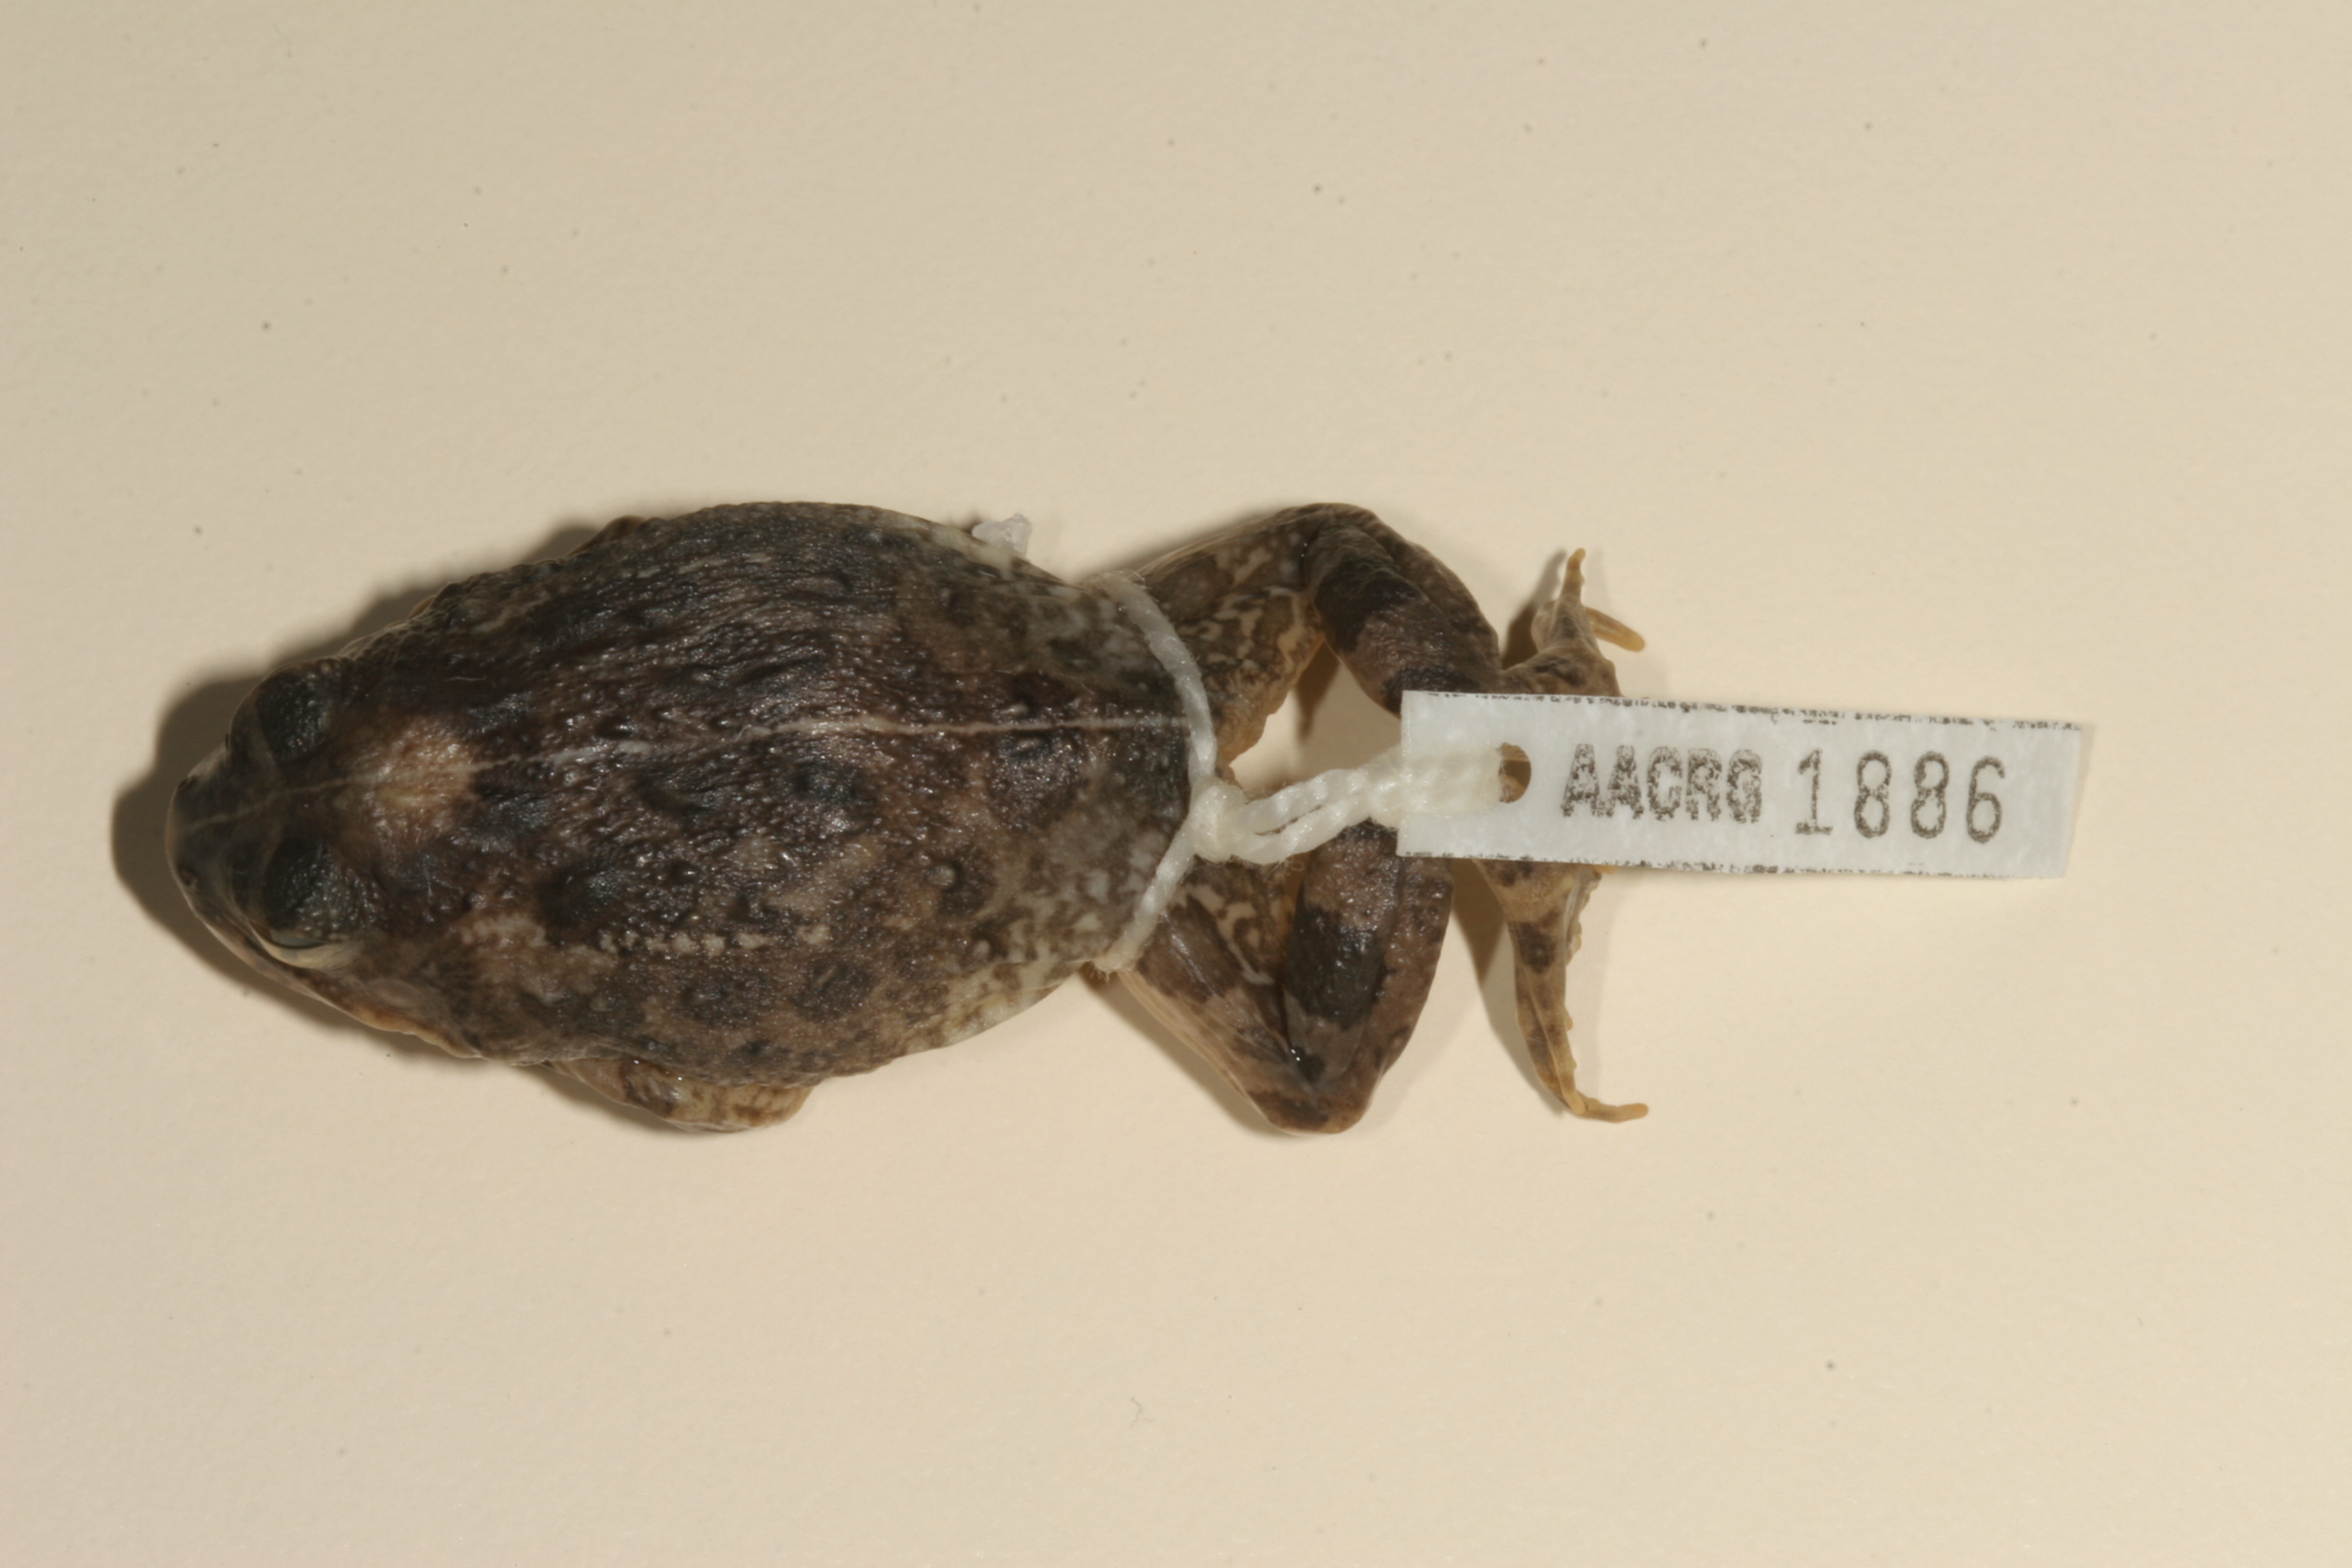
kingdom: Animalia
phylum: Chordata
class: Amphibia
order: Anura
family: Pyxicephalidae
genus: Tomopterna
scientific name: Tomopterna cryptotis
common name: Catequero bullfrog
